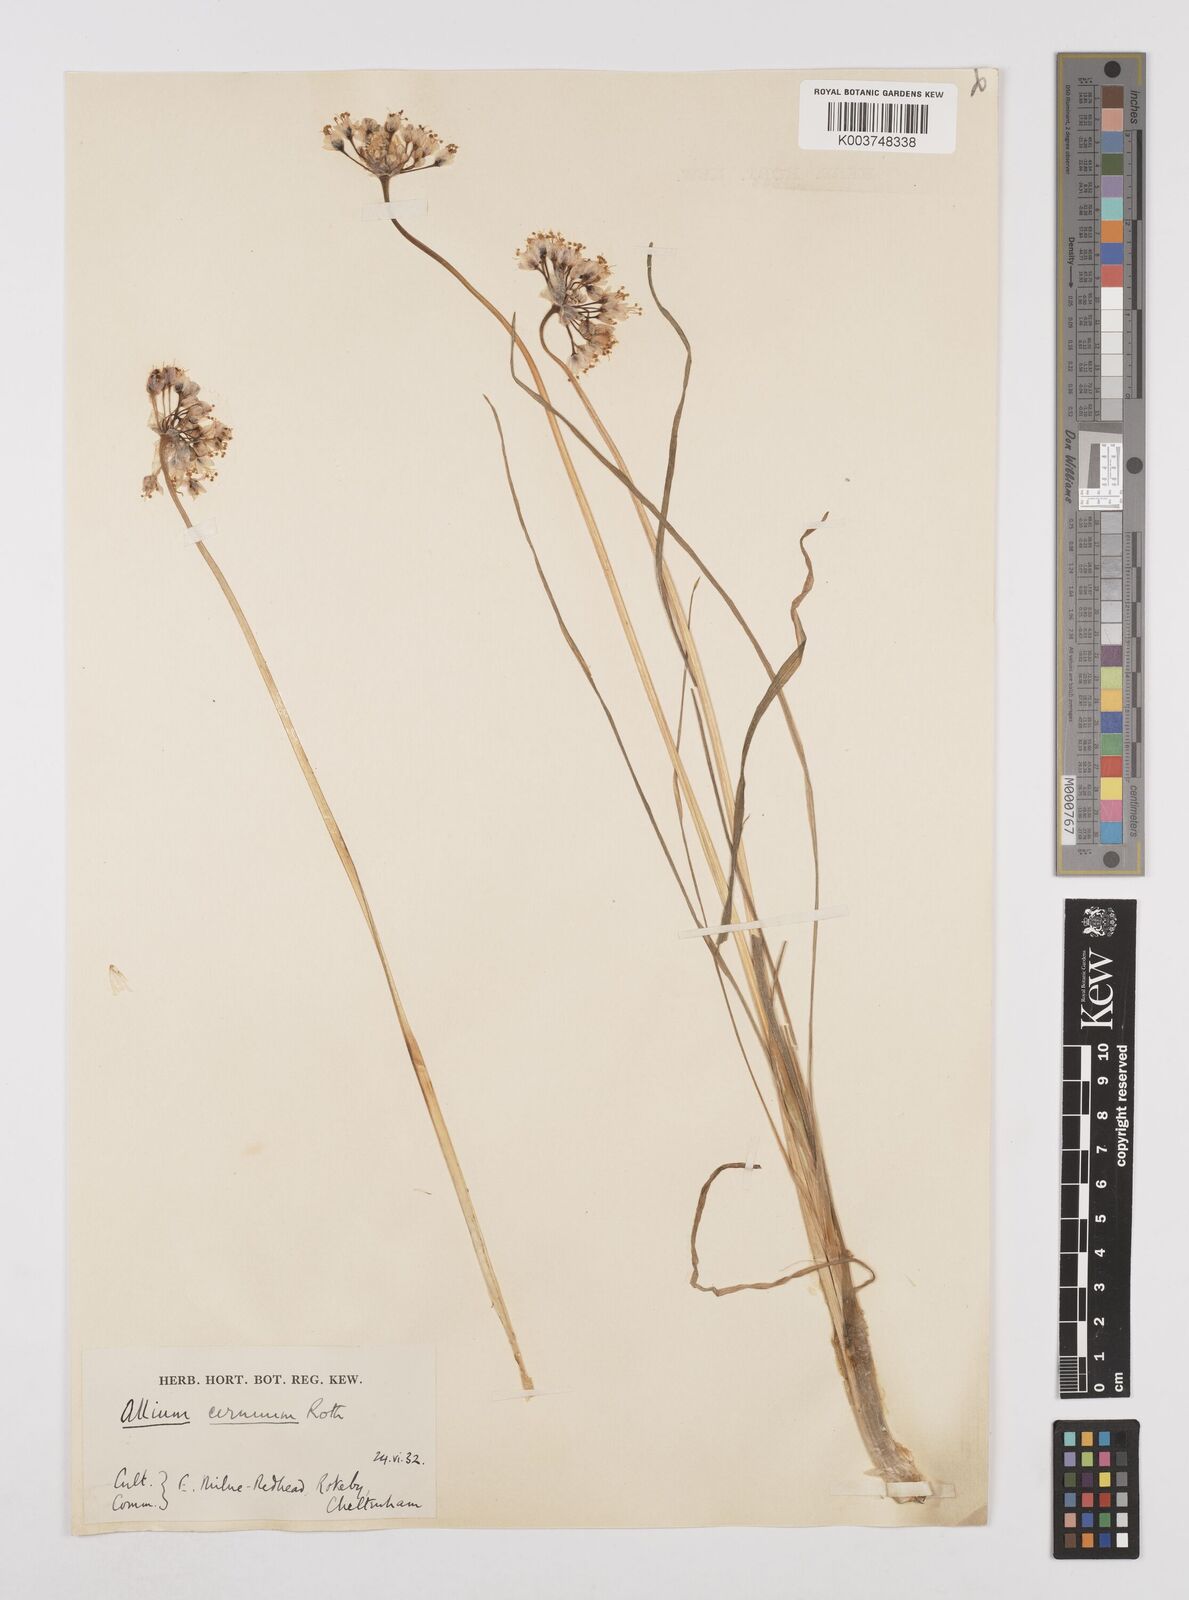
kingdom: Plantae
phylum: Tracheophyta
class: Liliopsida
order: Asparagales
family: Amaryllidaceae
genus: Allium
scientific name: Allium cernuum
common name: Nodding onion
